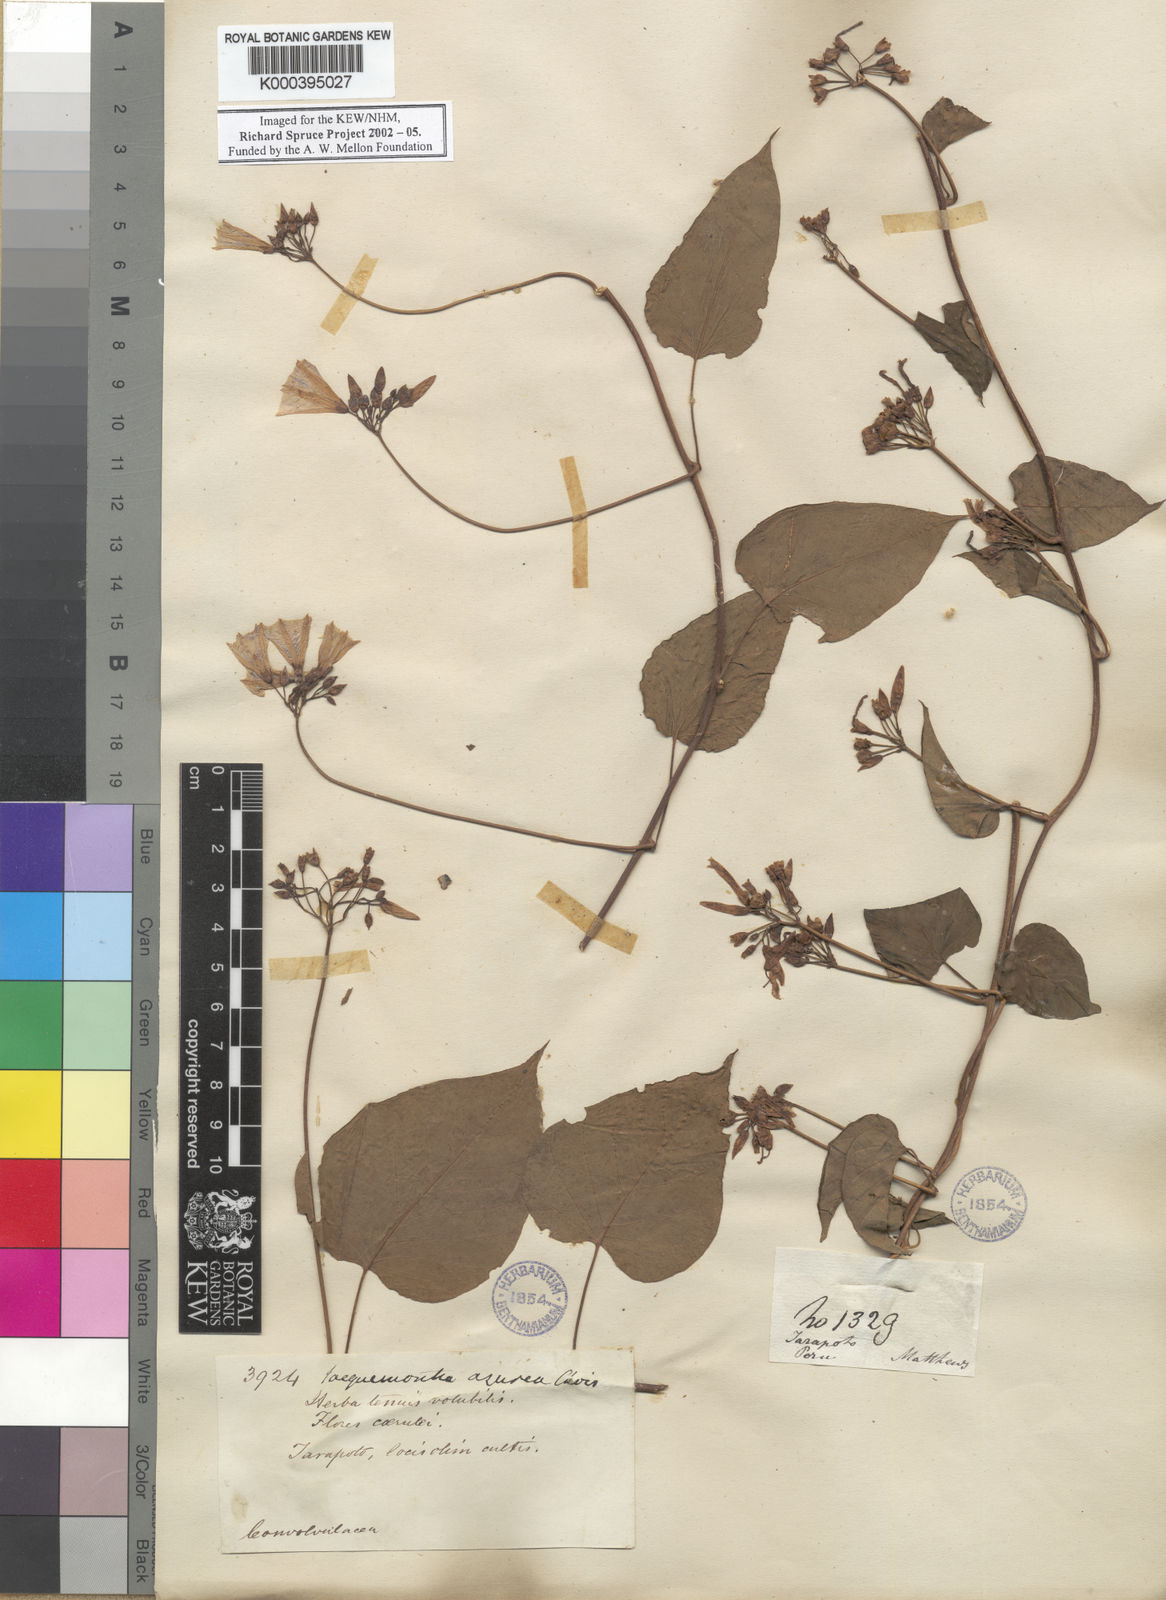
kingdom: Plantae
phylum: Tracheophyta
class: Magnoliopsida
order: Solanales
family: Convolvulaceae
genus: Jacquemontia
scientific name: Jacquemontia pentanthos
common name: Skyblue clustervine
